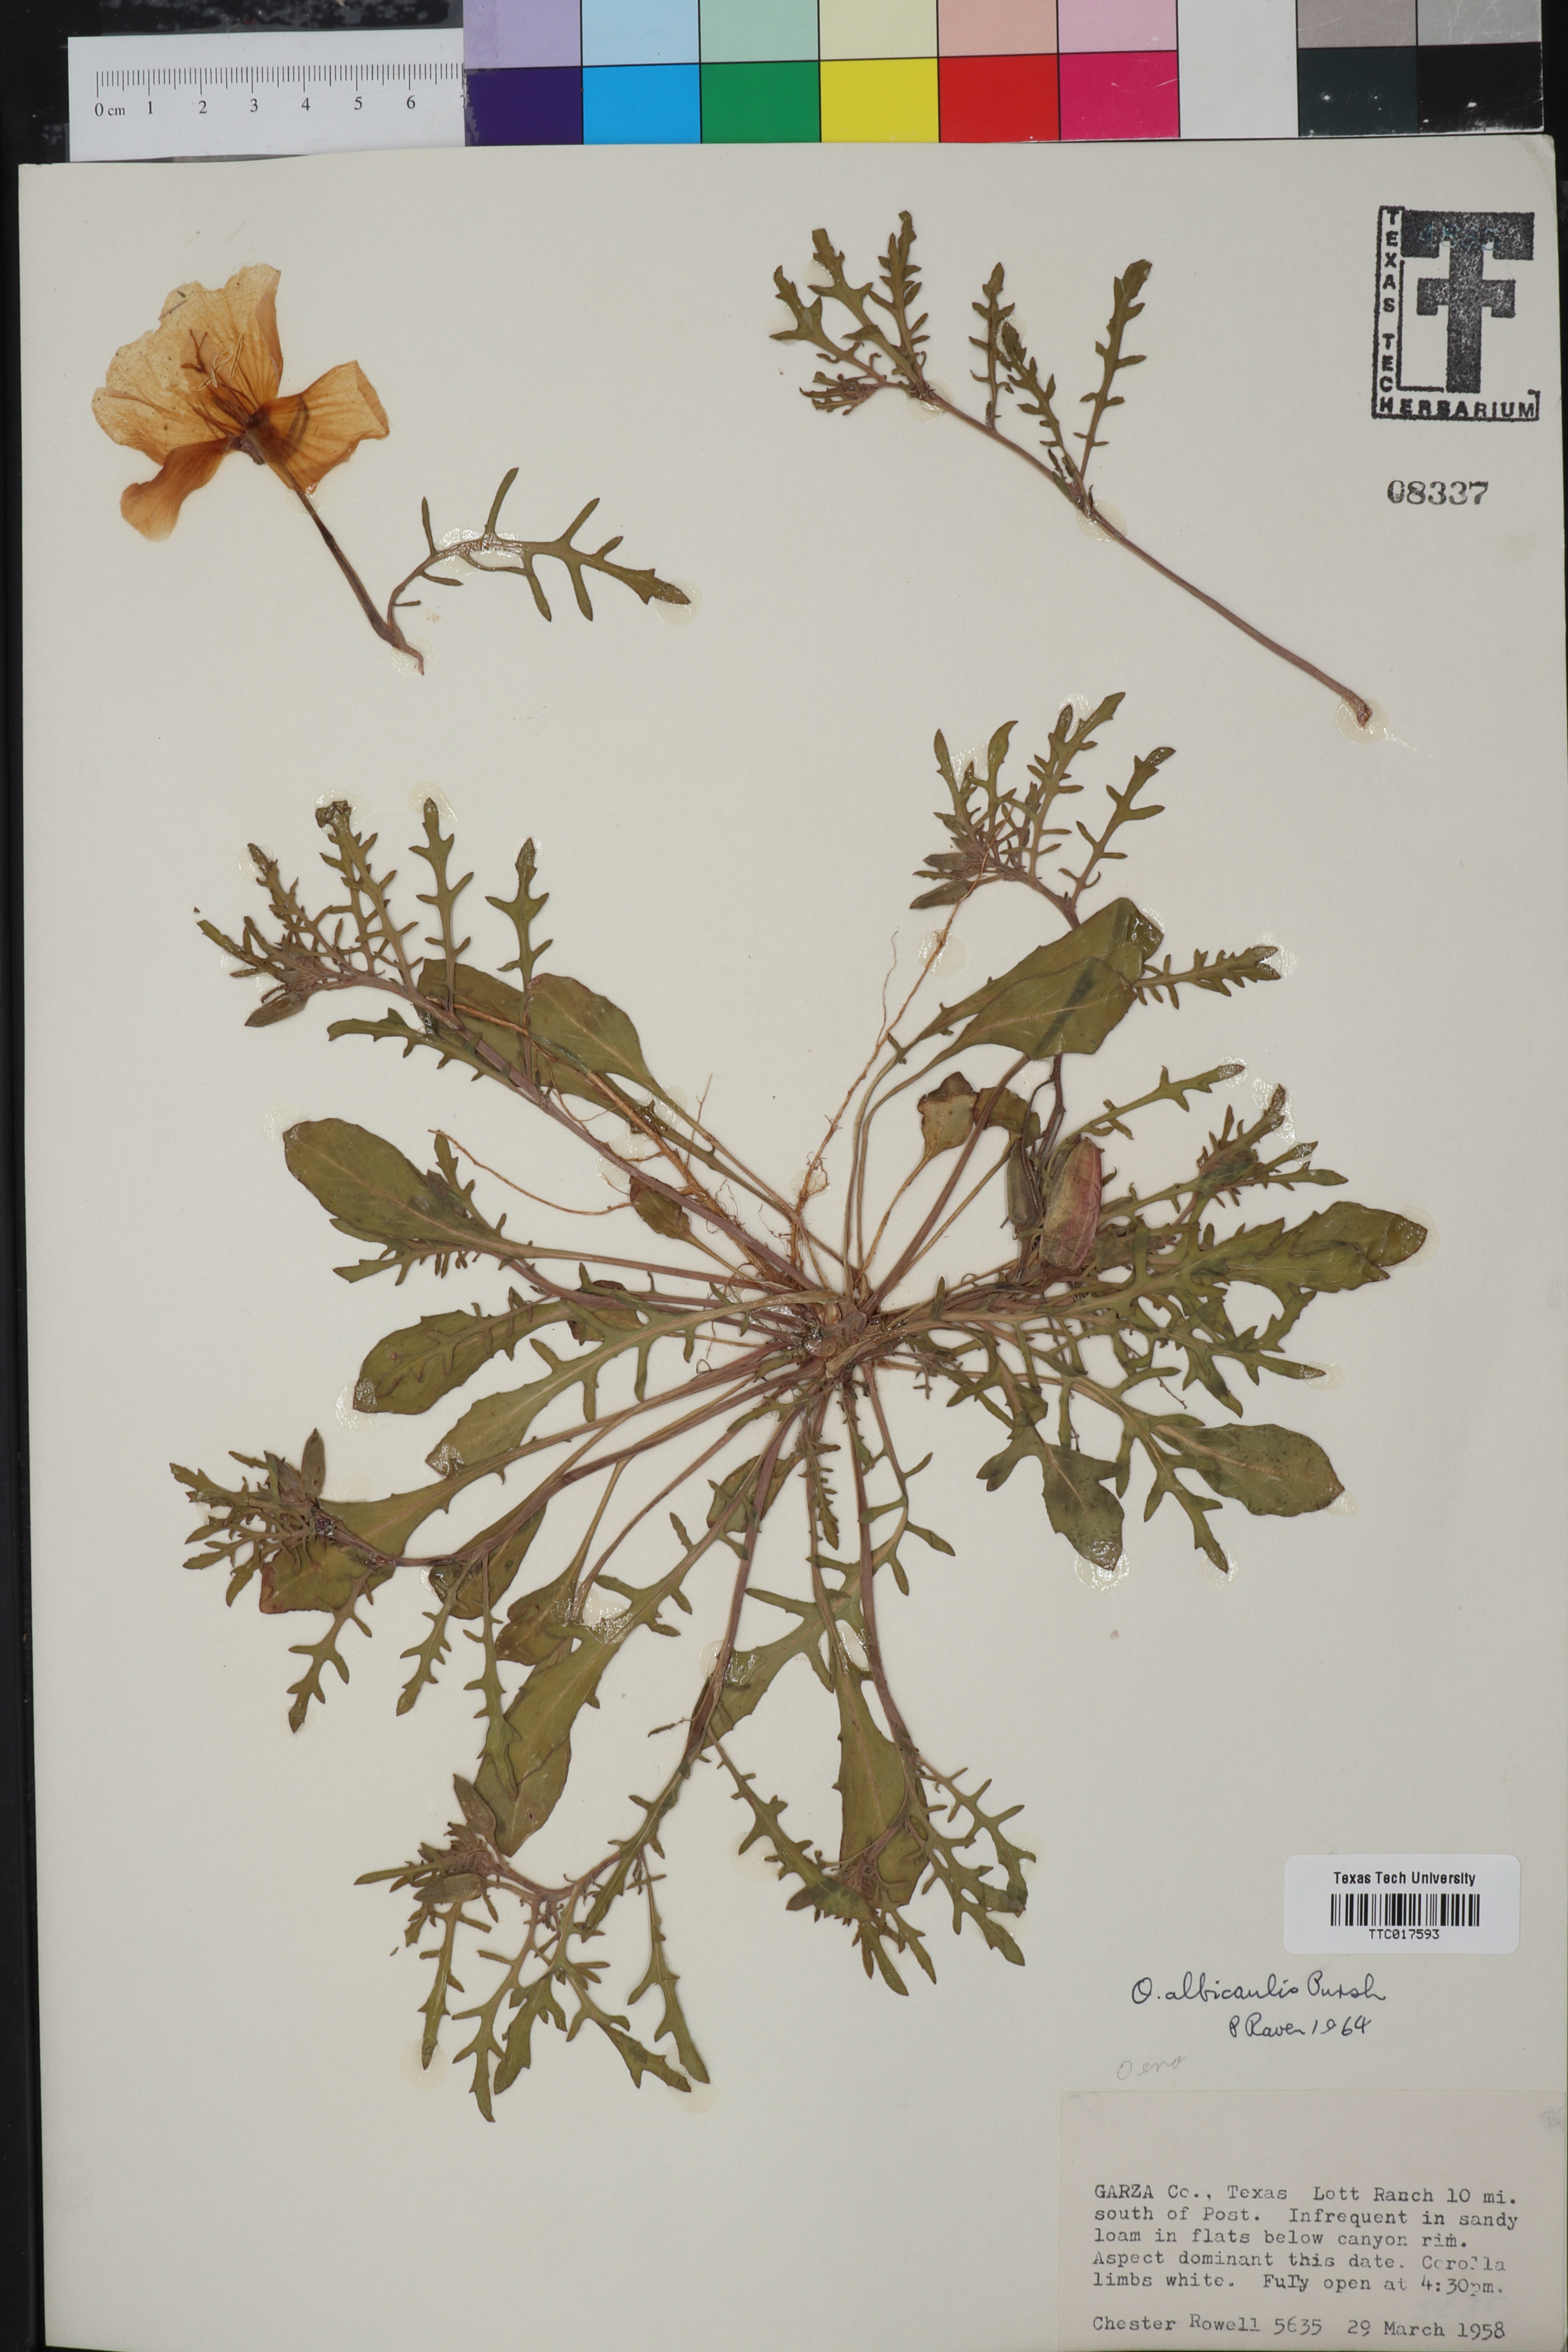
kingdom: Plantae
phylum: Tracheophyta
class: Magnoliopsida
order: Myrtales
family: Onagraceae
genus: Oenothera
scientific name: Oenothera albicaulis
